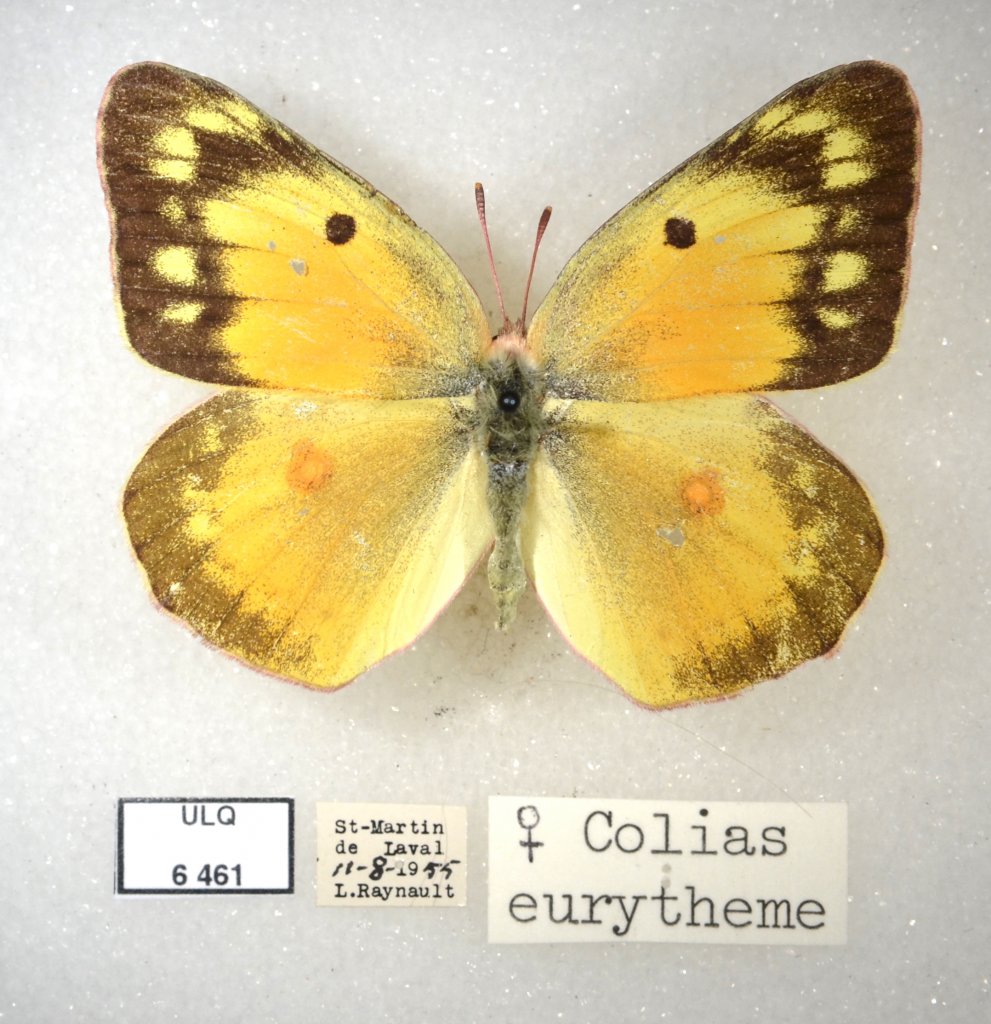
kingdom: Animalia
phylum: Arthropoda
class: Insecta
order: Lepidoptera
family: Pieridae
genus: Colias
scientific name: Colias eurytheme
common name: Orange Sulphur
